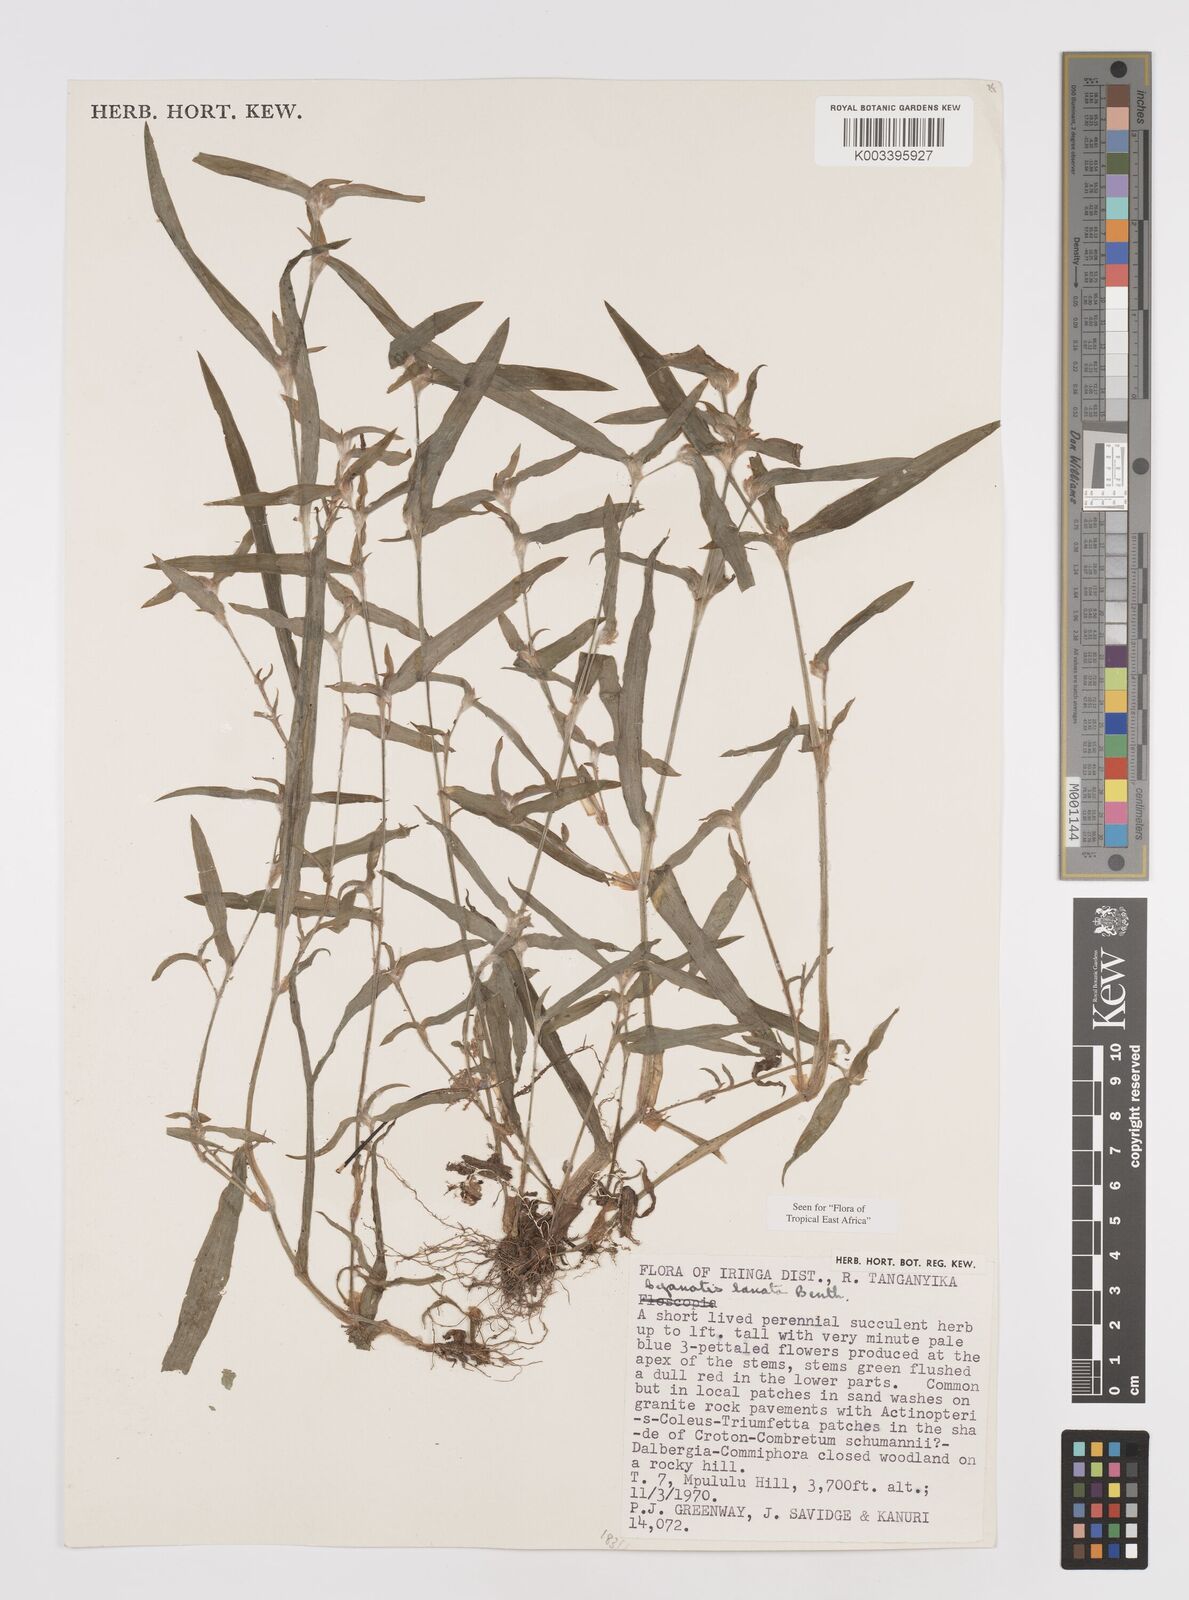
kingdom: Plantae
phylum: Tracheophyta
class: Liliopsida
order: Commelinales
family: Commelinaceae
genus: Cyanotis
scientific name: Cyanotis lanata
